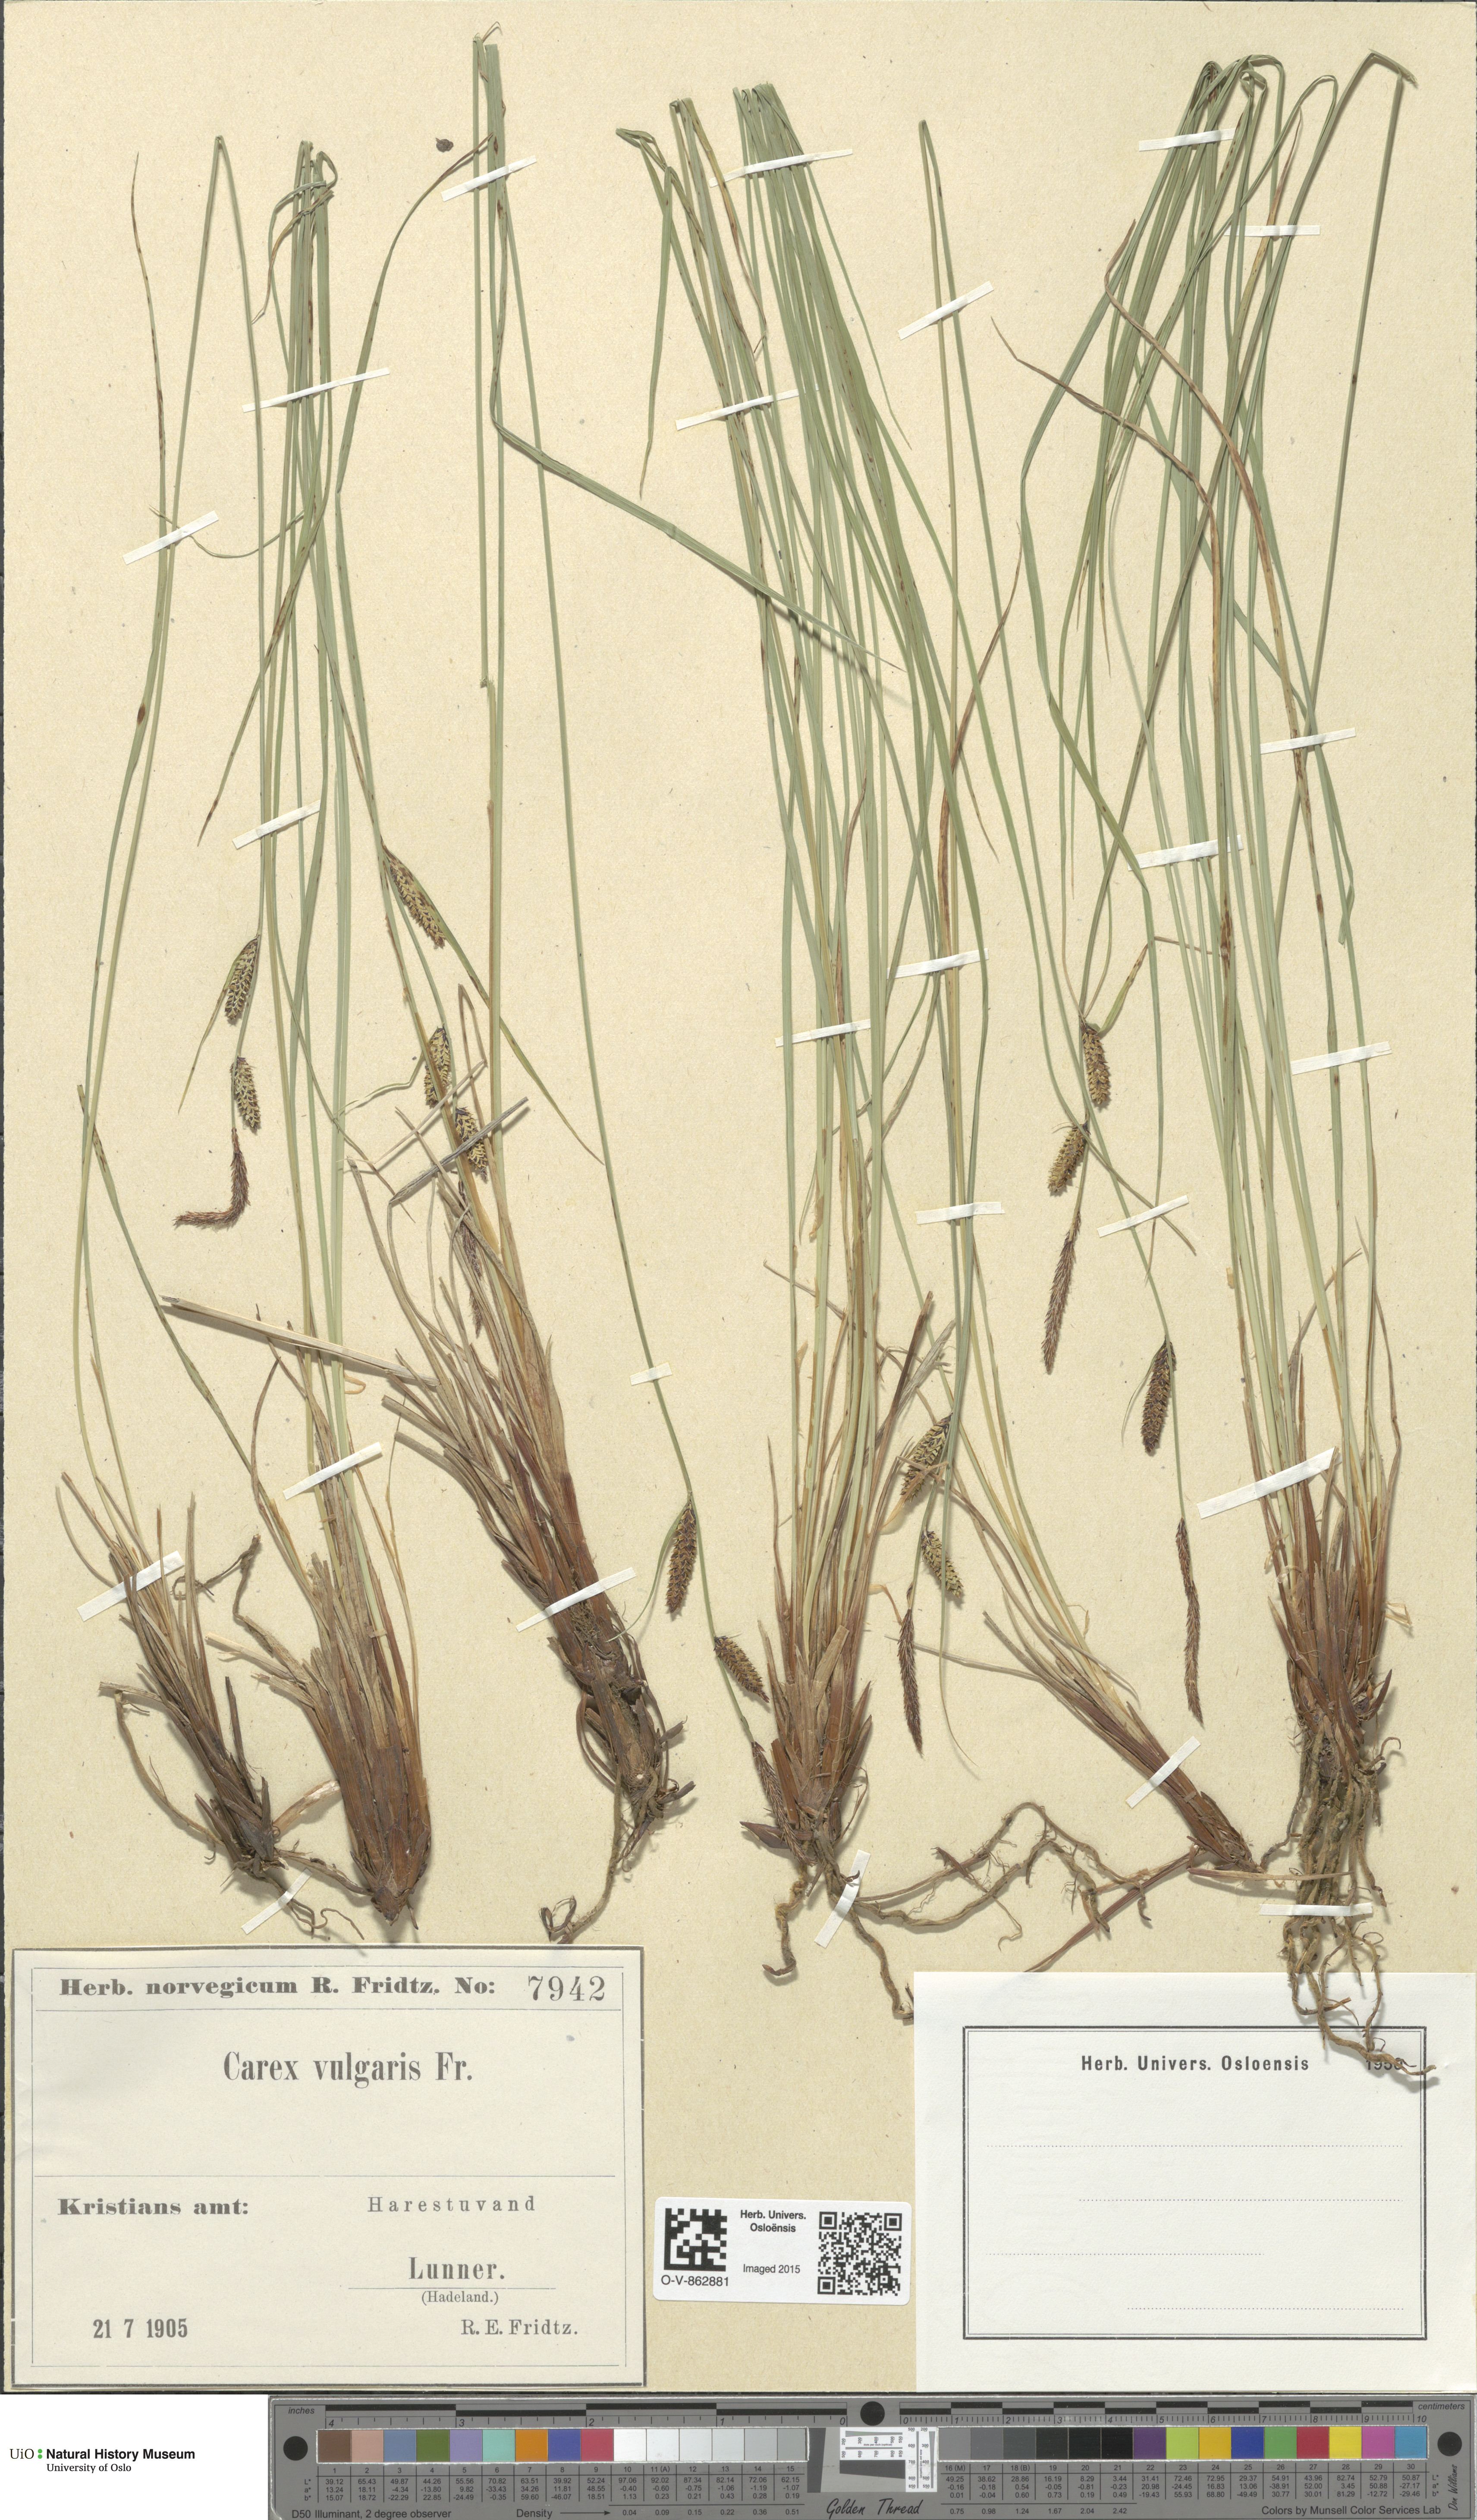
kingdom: Plantae
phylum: Tracheophyta
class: Liliopsida
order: Poales
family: Cyperaceae
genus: Carex
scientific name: Carex nigra
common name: Common sedge
